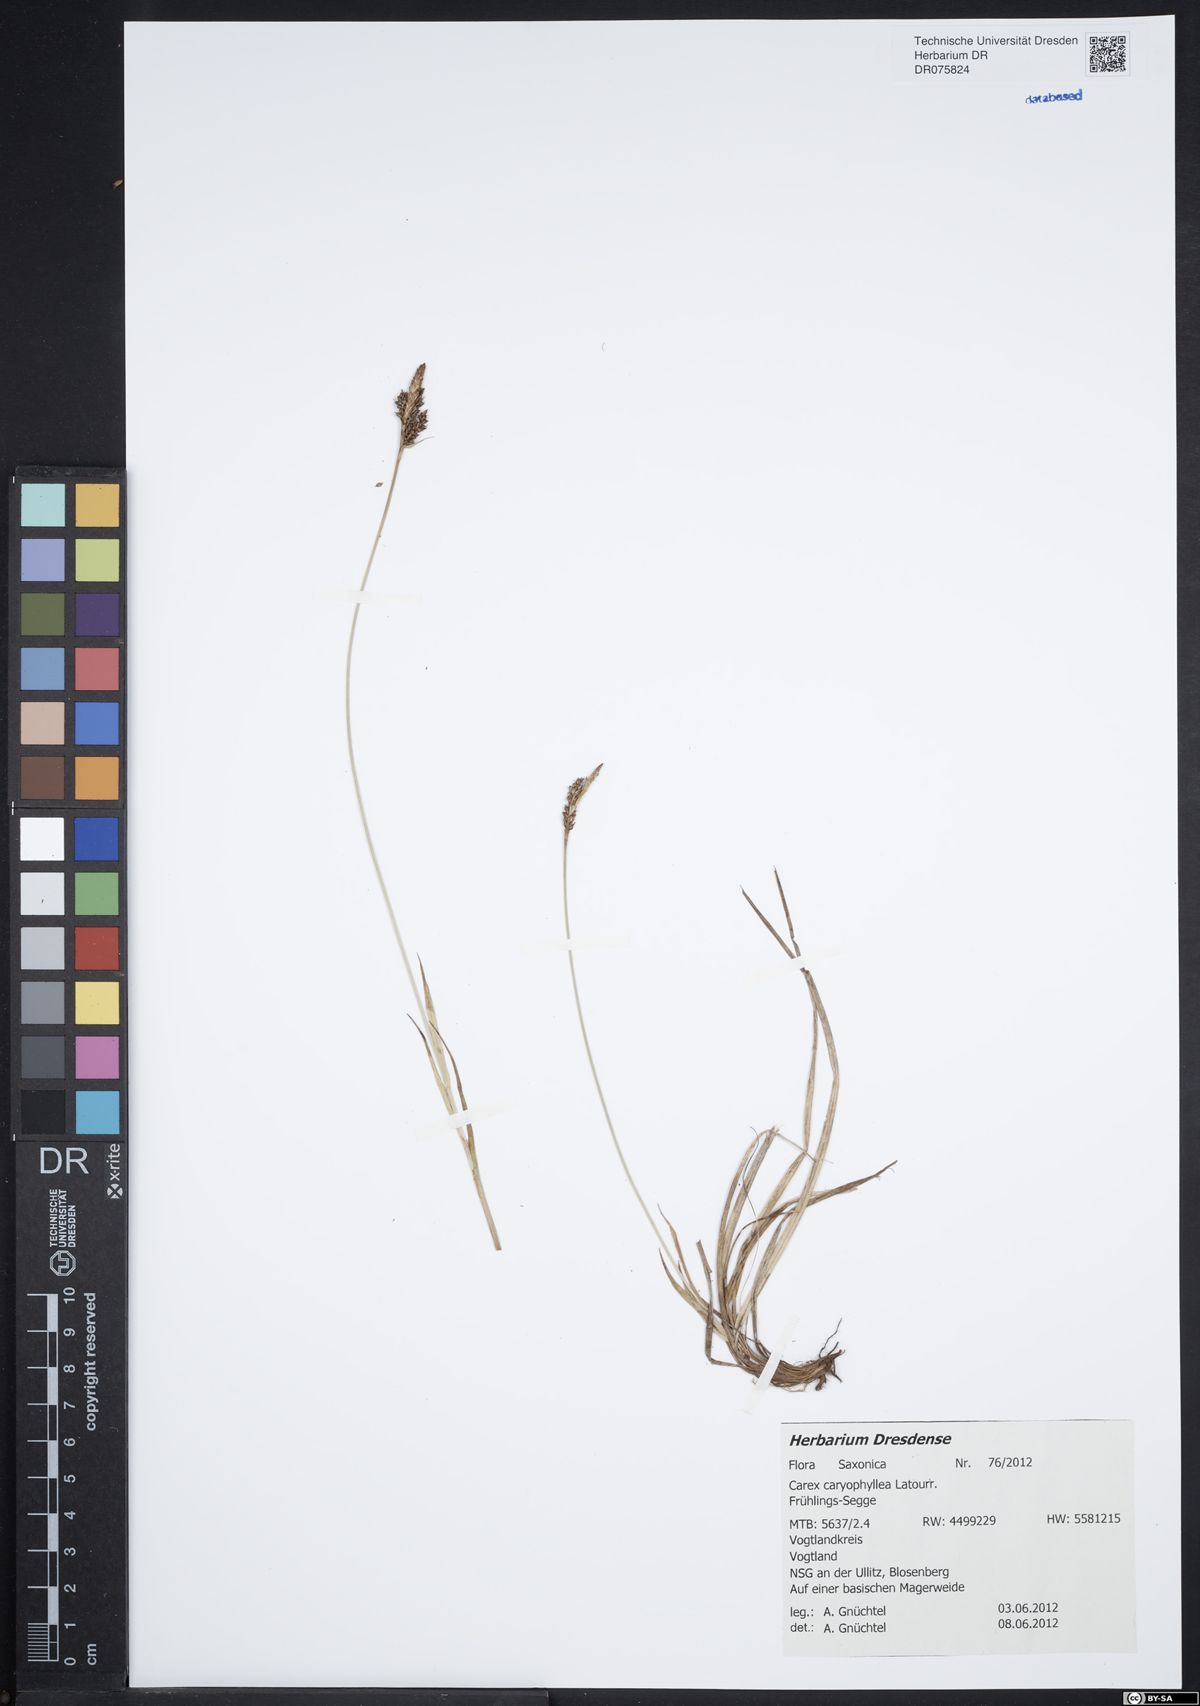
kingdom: Plantae
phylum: Tracheophyta
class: Liliopsida
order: Poales
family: Cyperaceae
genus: Carex
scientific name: Carex caryophyllea
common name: Spring sedge
